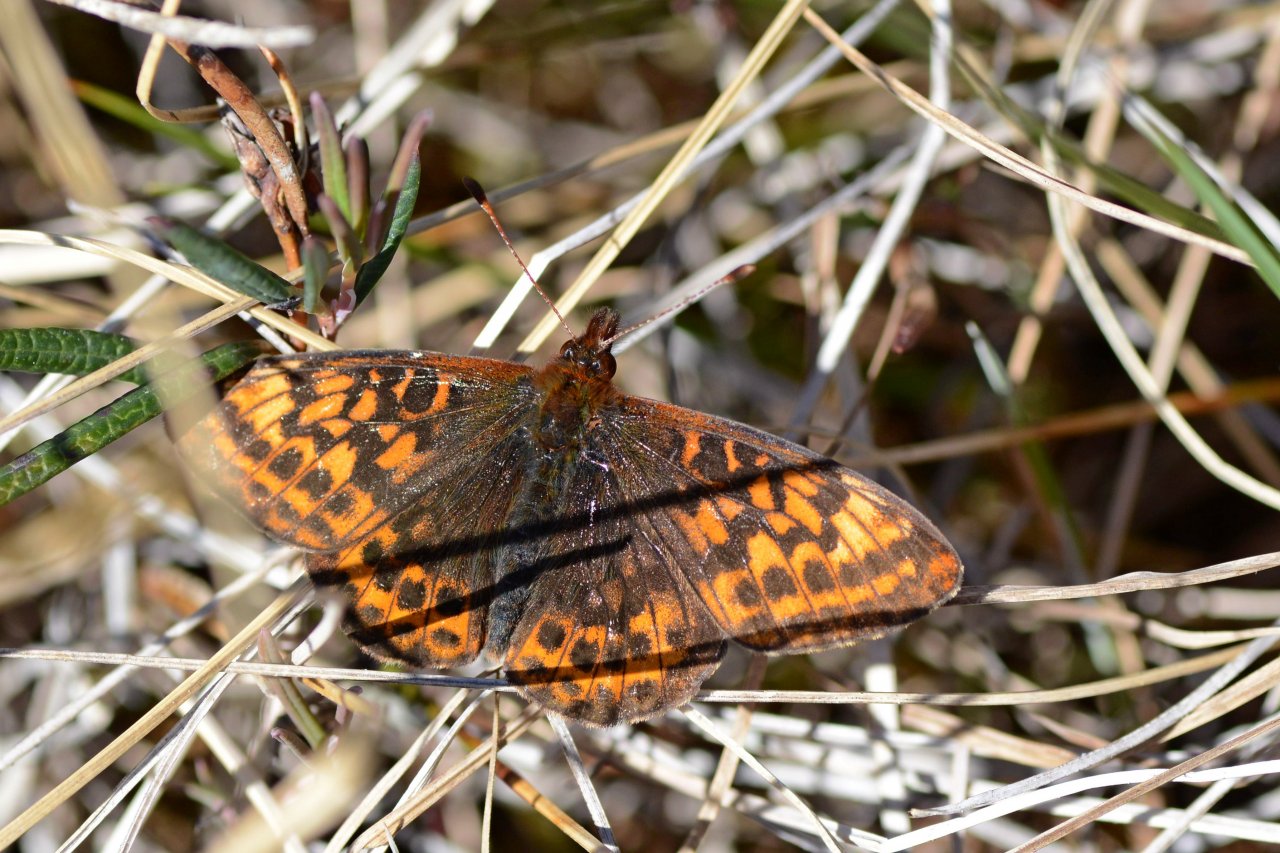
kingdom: Animalia
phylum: Arthropoda
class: Insecta
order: Lepidoptera
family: Nymphalidae
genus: Boloria
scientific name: Boloria frigga
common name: Frigga Fritillary
